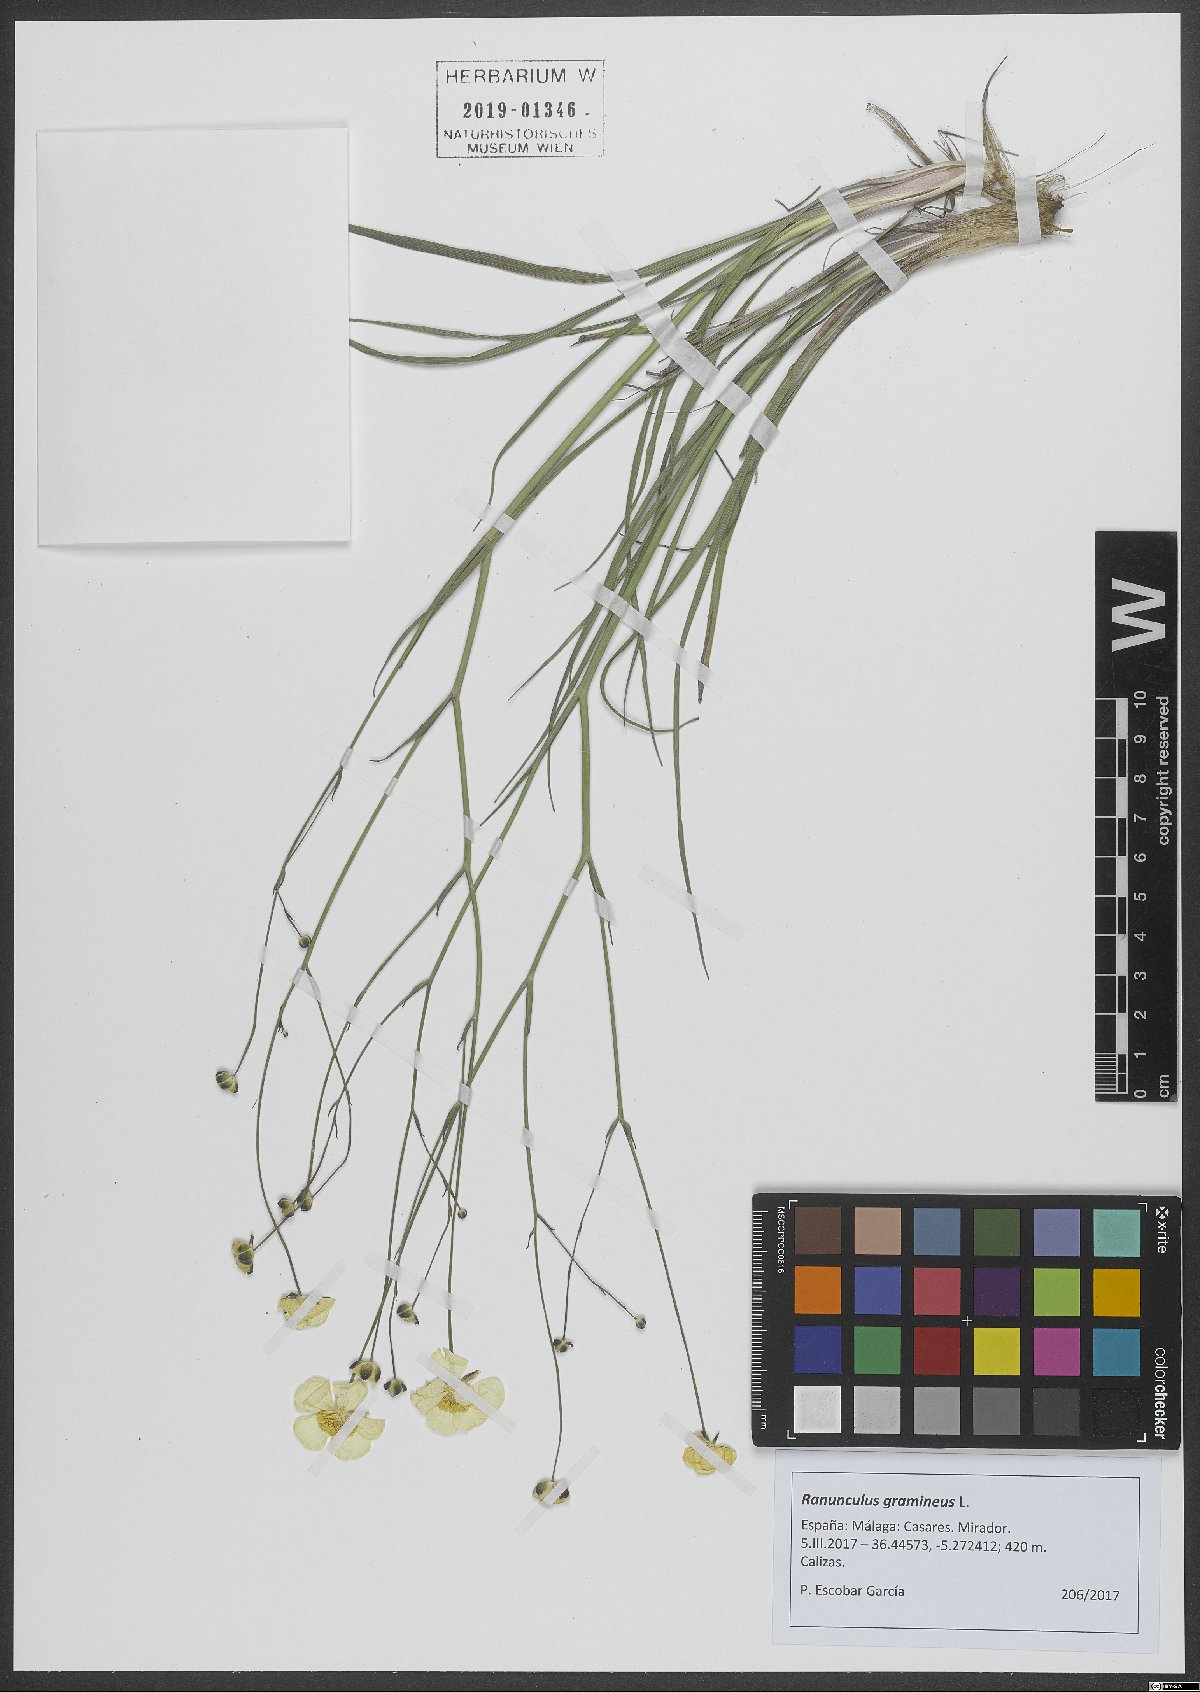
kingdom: Plantae
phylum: Tracheophyta
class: Magnoliopsida
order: Ranunculales
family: Ranunculaceae
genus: Ranunculus
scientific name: Ranunculus gramineus
